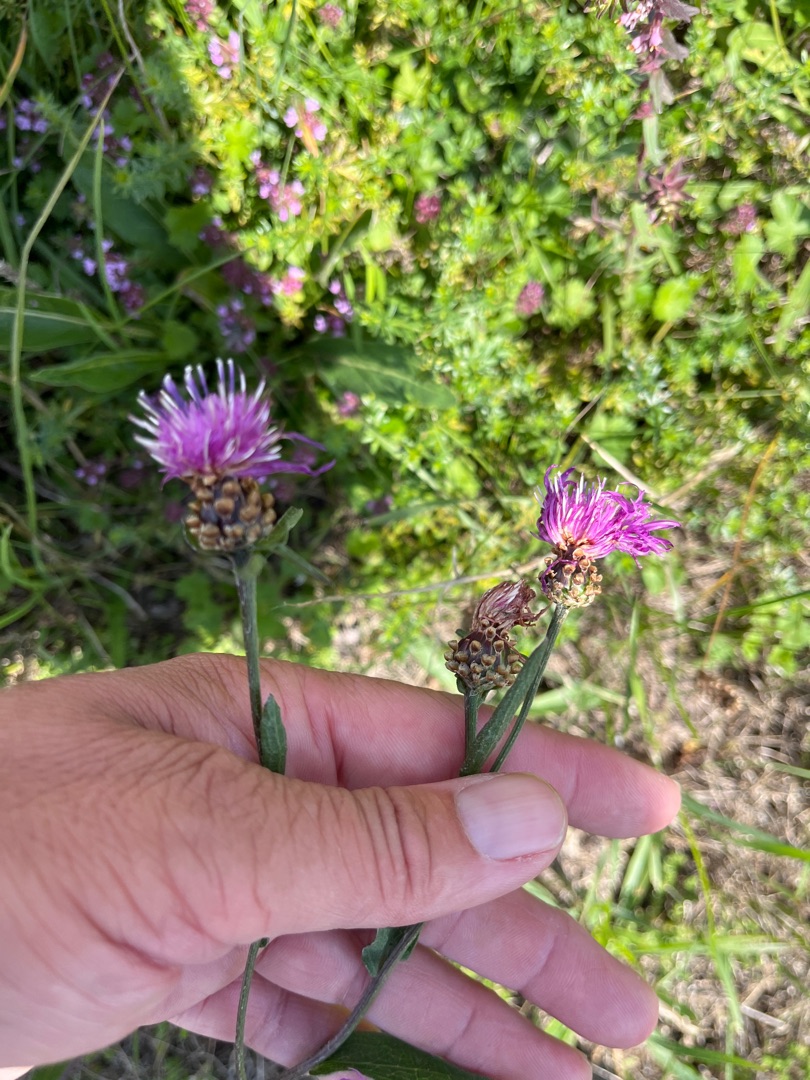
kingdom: Plantae
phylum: Tracheophyta
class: Magnoliopsida
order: Asterales
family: Asteraceae
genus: Centaurea
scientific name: Centaurea jacea
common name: Almindelig knopurt
